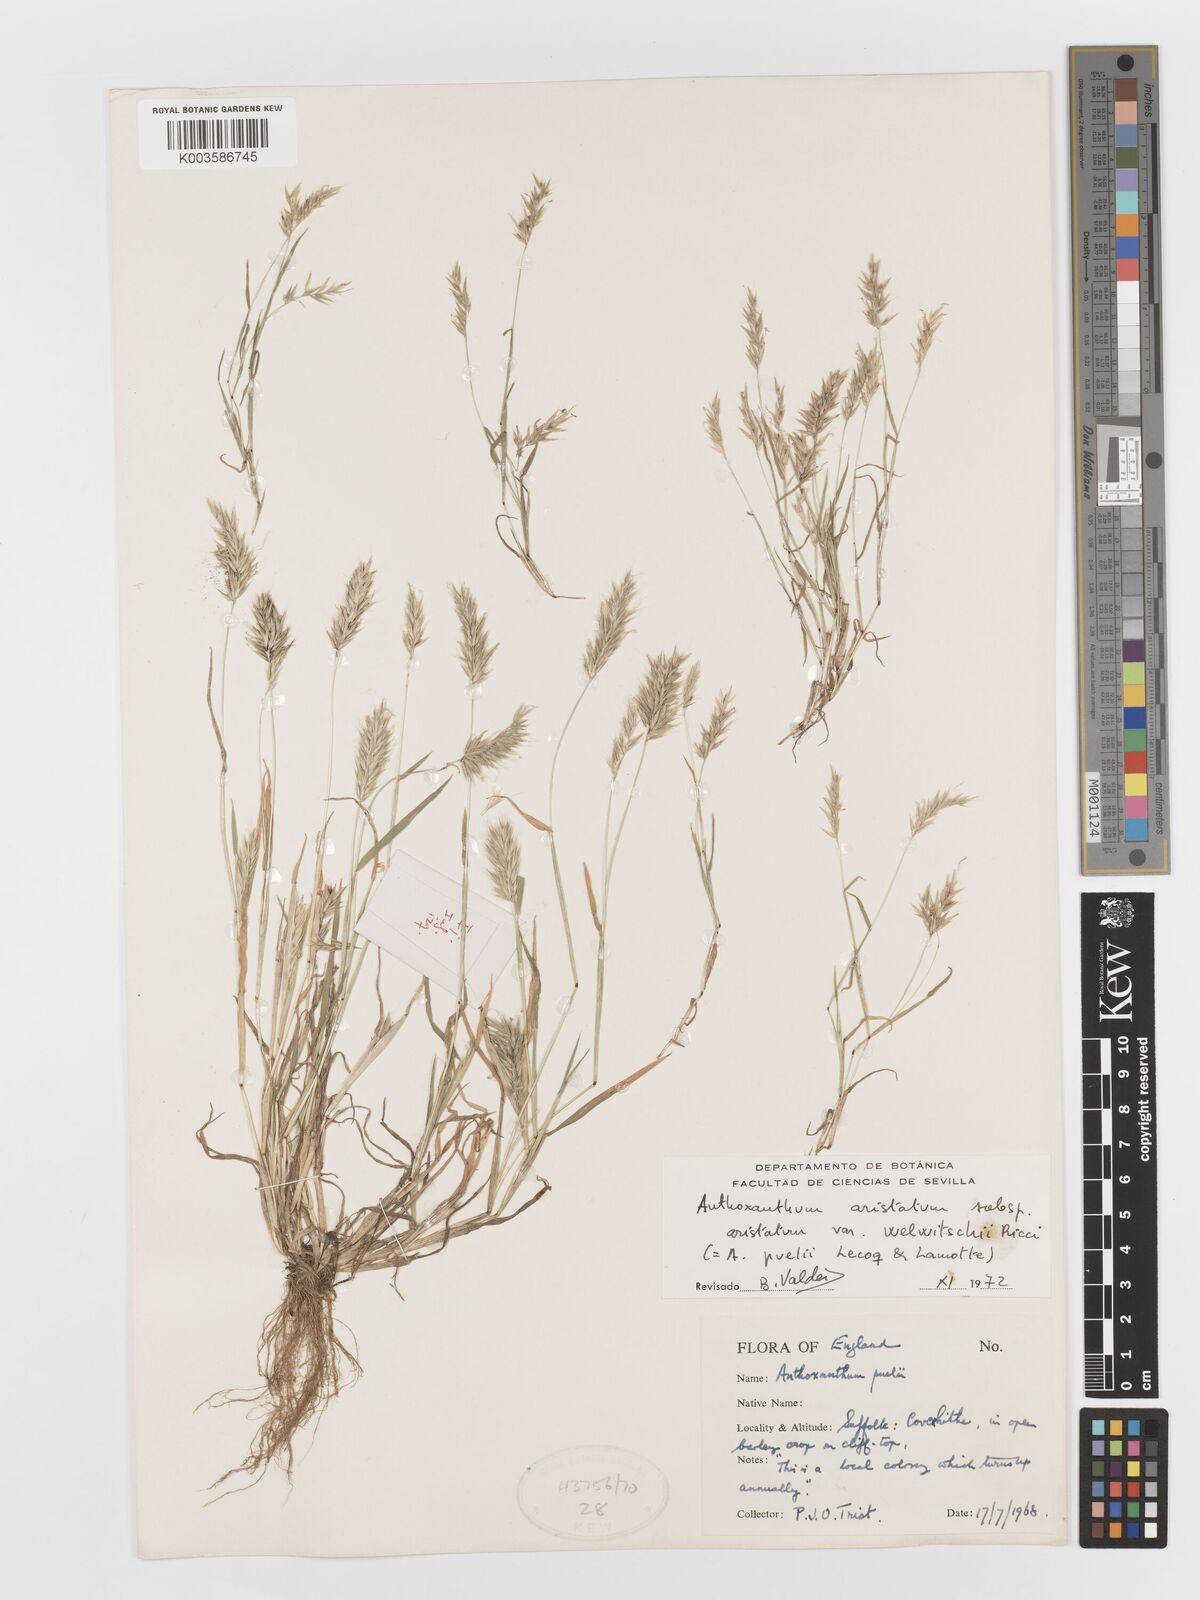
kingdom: Plantae
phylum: Tracheophyta
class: Liliopsida
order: Poales
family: Poaceae
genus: Anthoxanthum
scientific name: Anthoxanthum aristatum
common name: Annual vernal-grass
